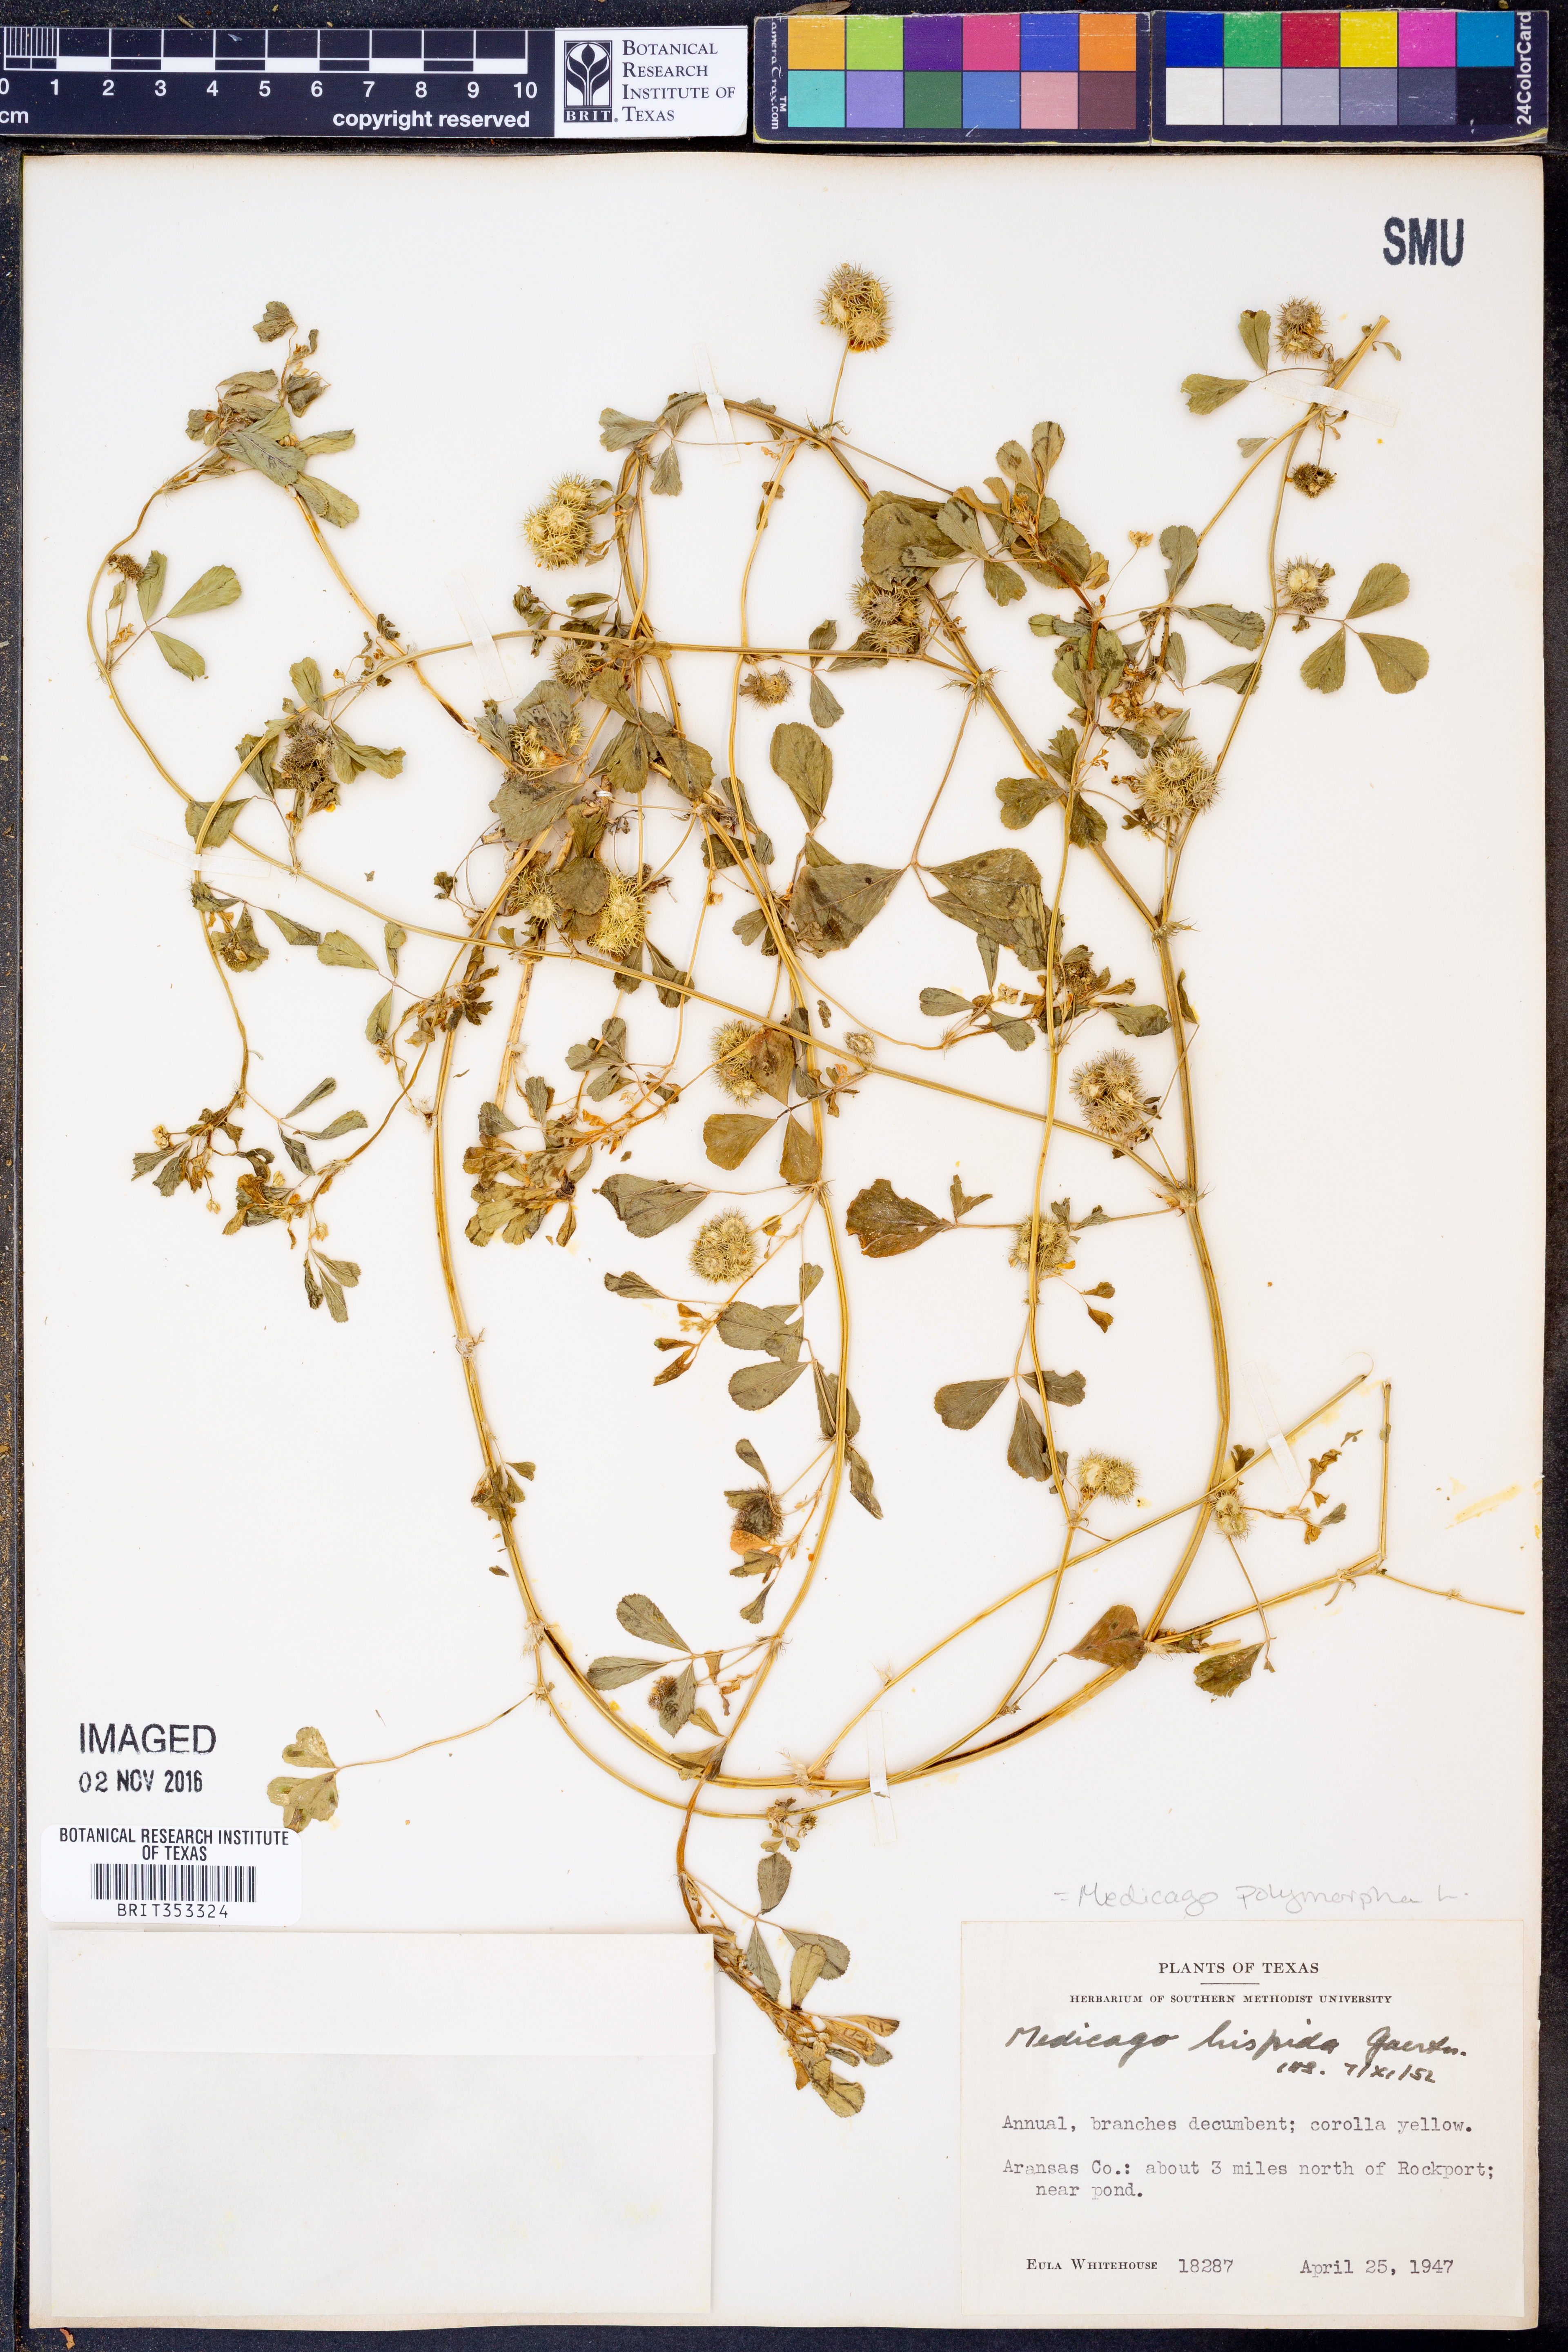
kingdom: Plantae
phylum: Tracheophyta
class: Magnoliopsida
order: Fabales
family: Fabaceae
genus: Medicago
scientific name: Medicago polymorpha
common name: Burclover
